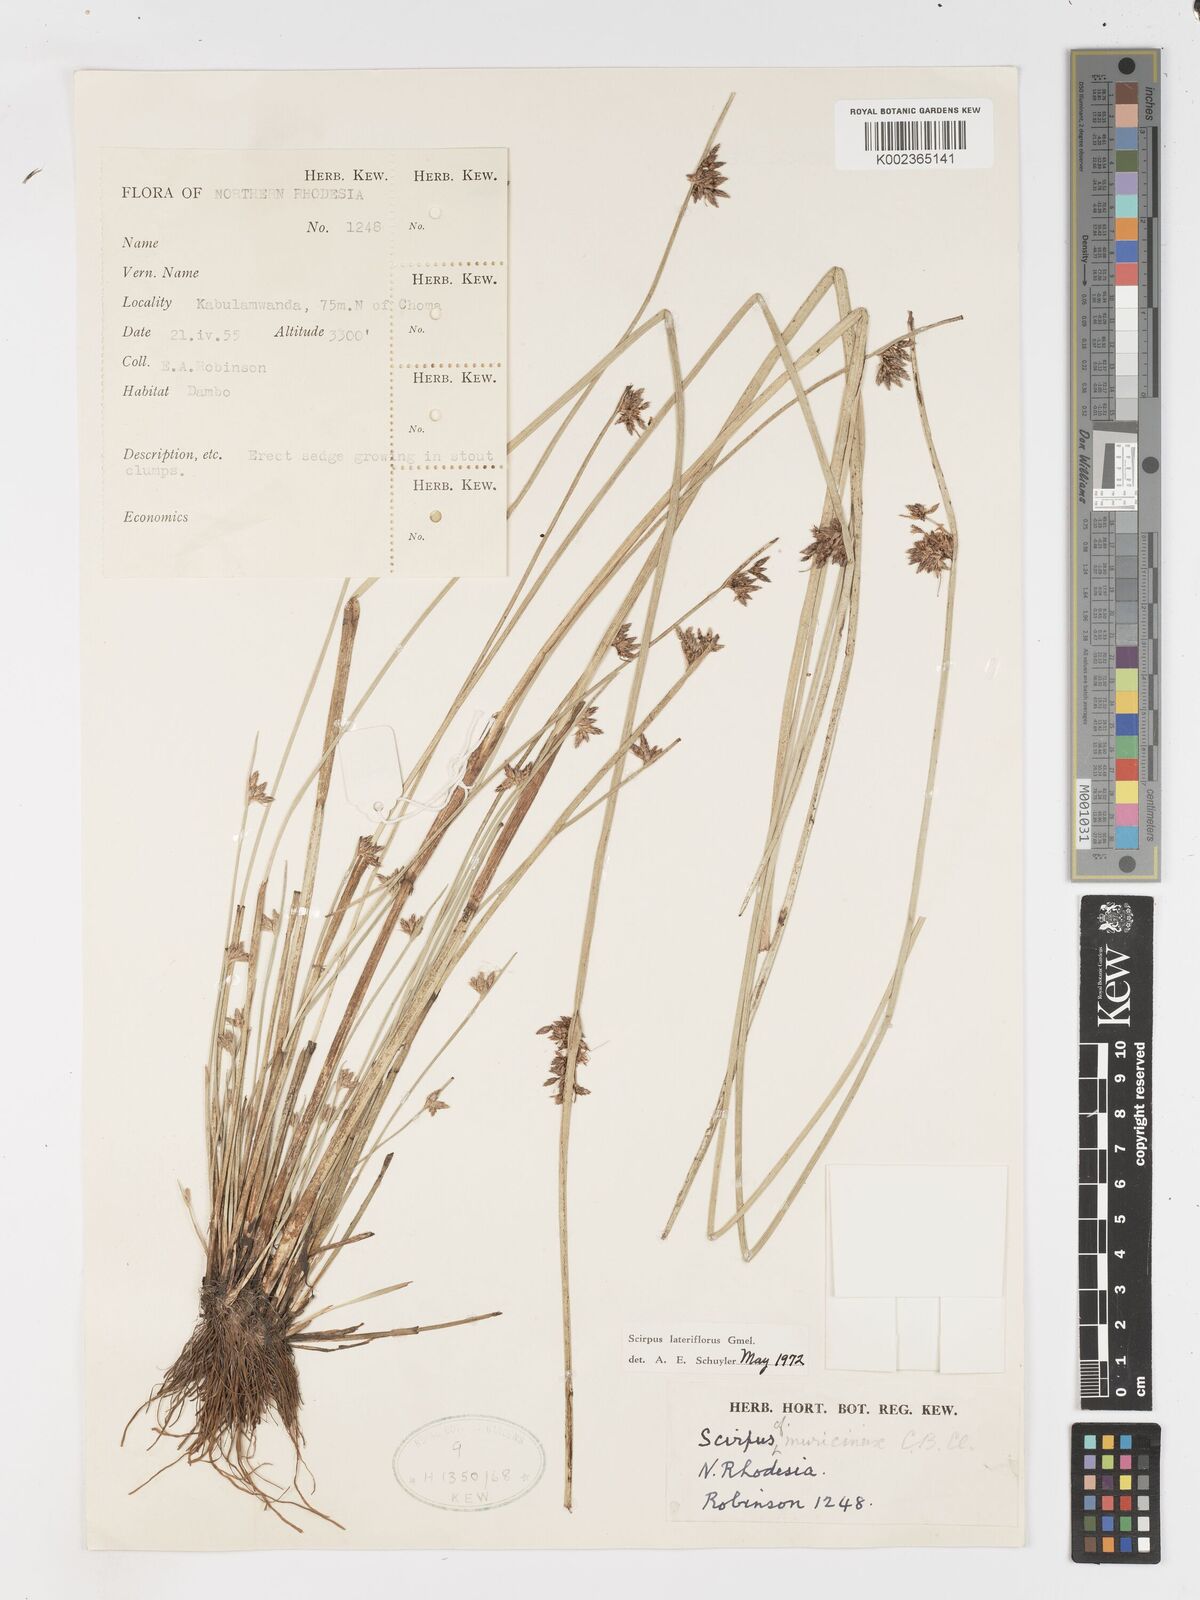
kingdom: Plantae
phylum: Tracheophyta
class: Liliopsida
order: Poales
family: Cyperaceae
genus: Schoenoplectiella
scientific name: Schoenoplectiella lateriflora
